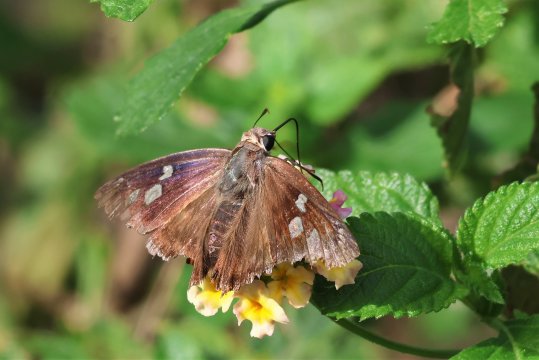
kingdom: Animalia
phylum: Arthropoda
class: Insecta
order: Lepidoptera
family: Hesperiidae
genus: Polygonus
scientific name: Polygonus leo
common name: Hammock Skipper
